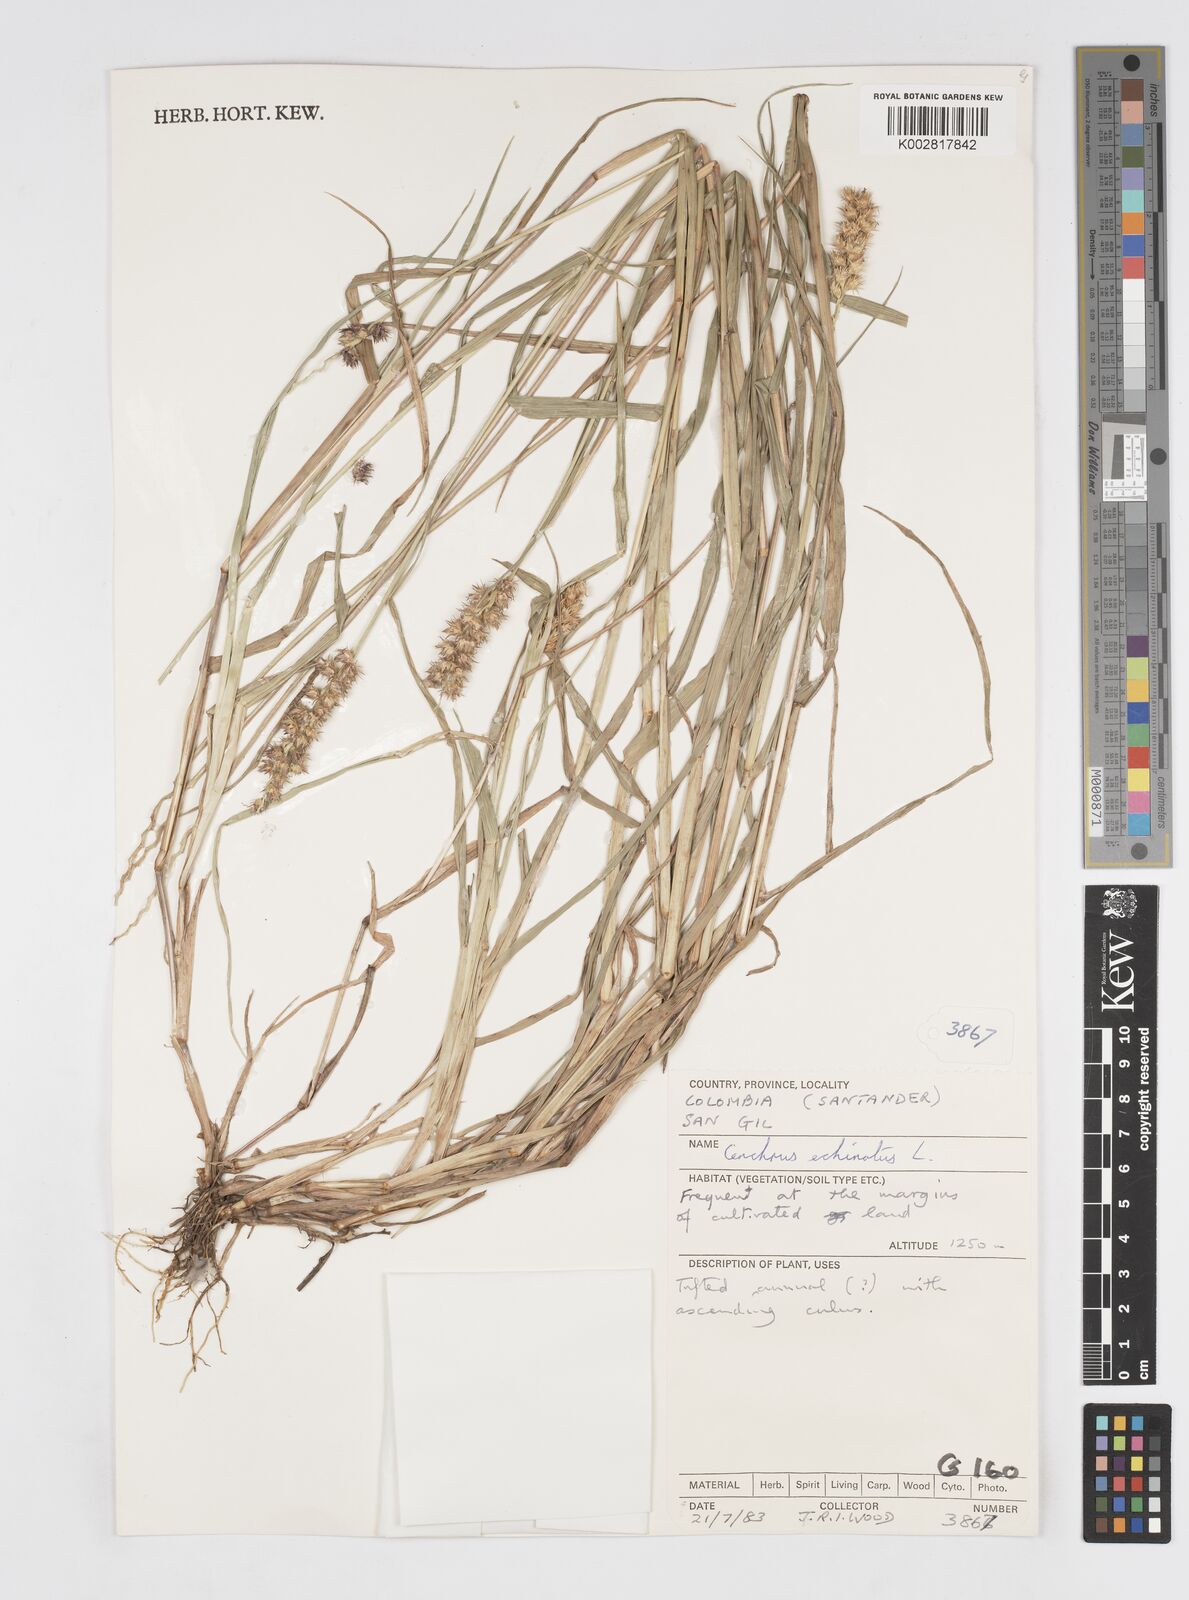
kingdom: Plantae
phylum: Tracheophyta
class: Liliopsida
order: Poales
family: Poaceae
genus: Cenchrus
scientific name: Cenchrus
